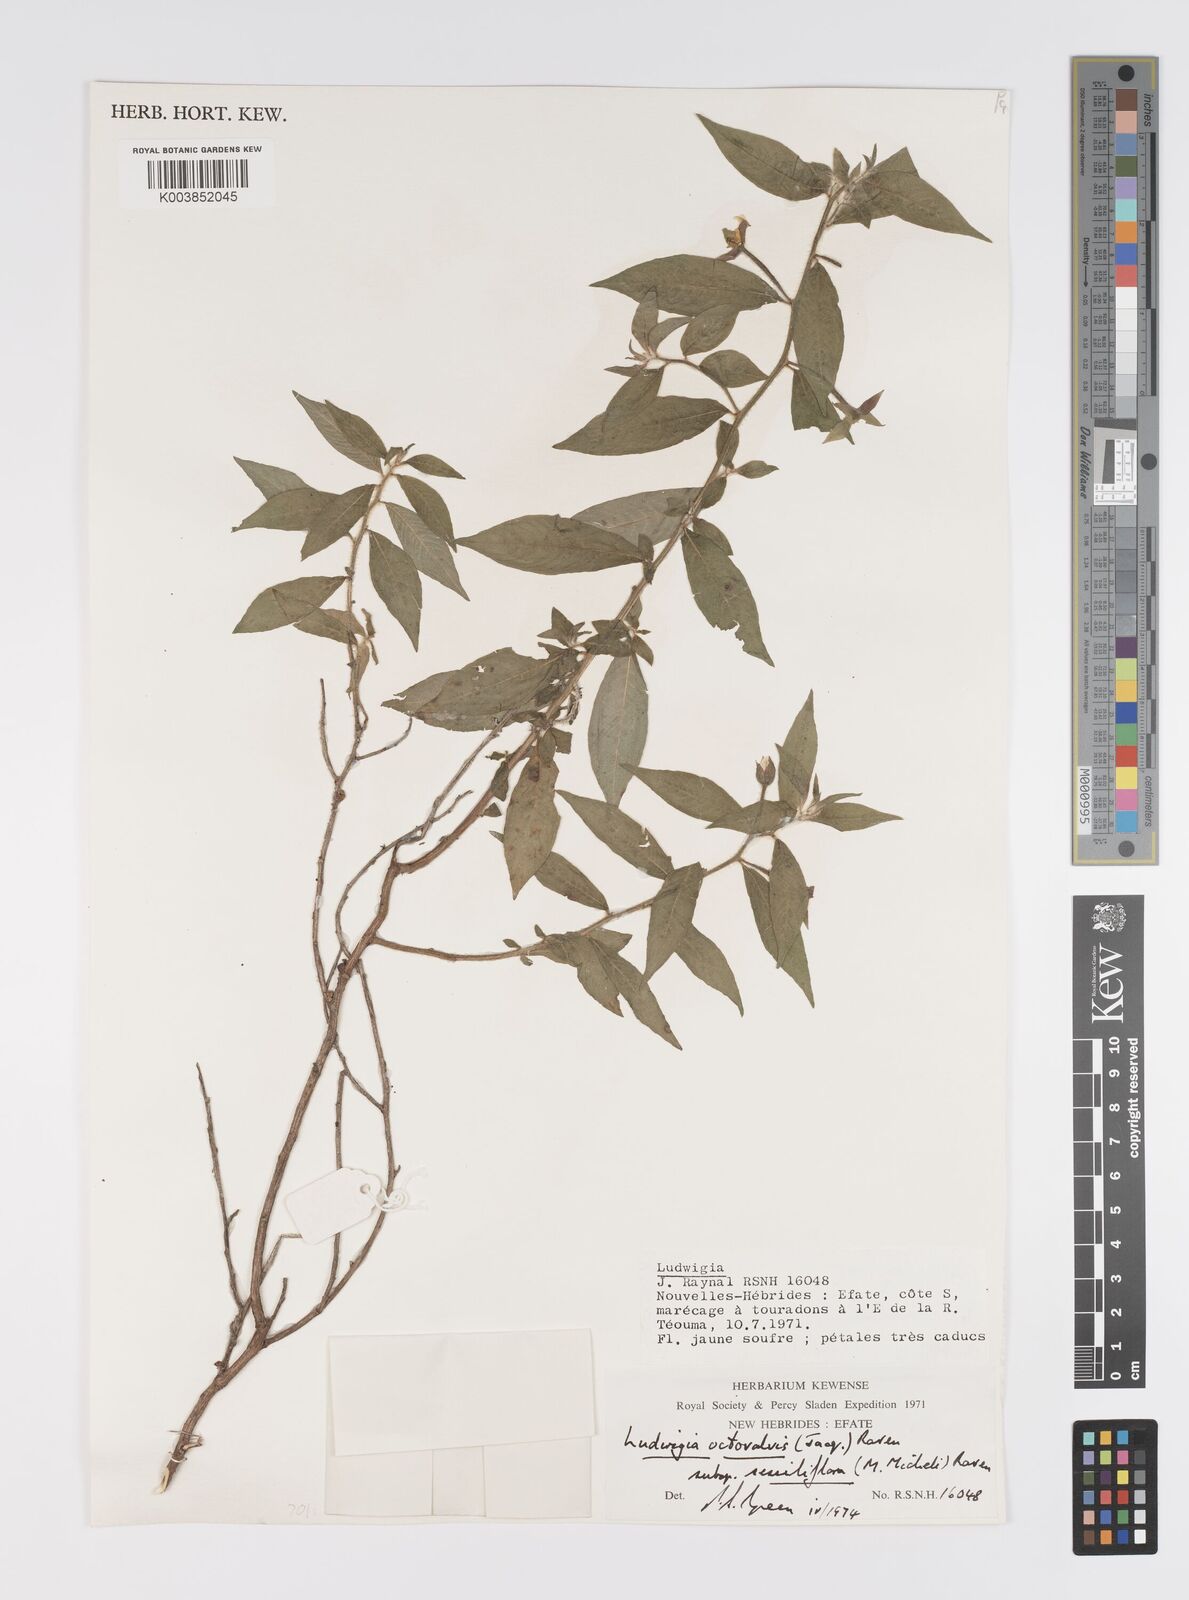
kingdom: Plantae
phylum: Tracheophyta
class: Magnoliopsida
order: Myrtales
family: Onagraceae
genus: Ludwigia
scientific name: Ludwigia octovalvis
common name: Water-primrose
